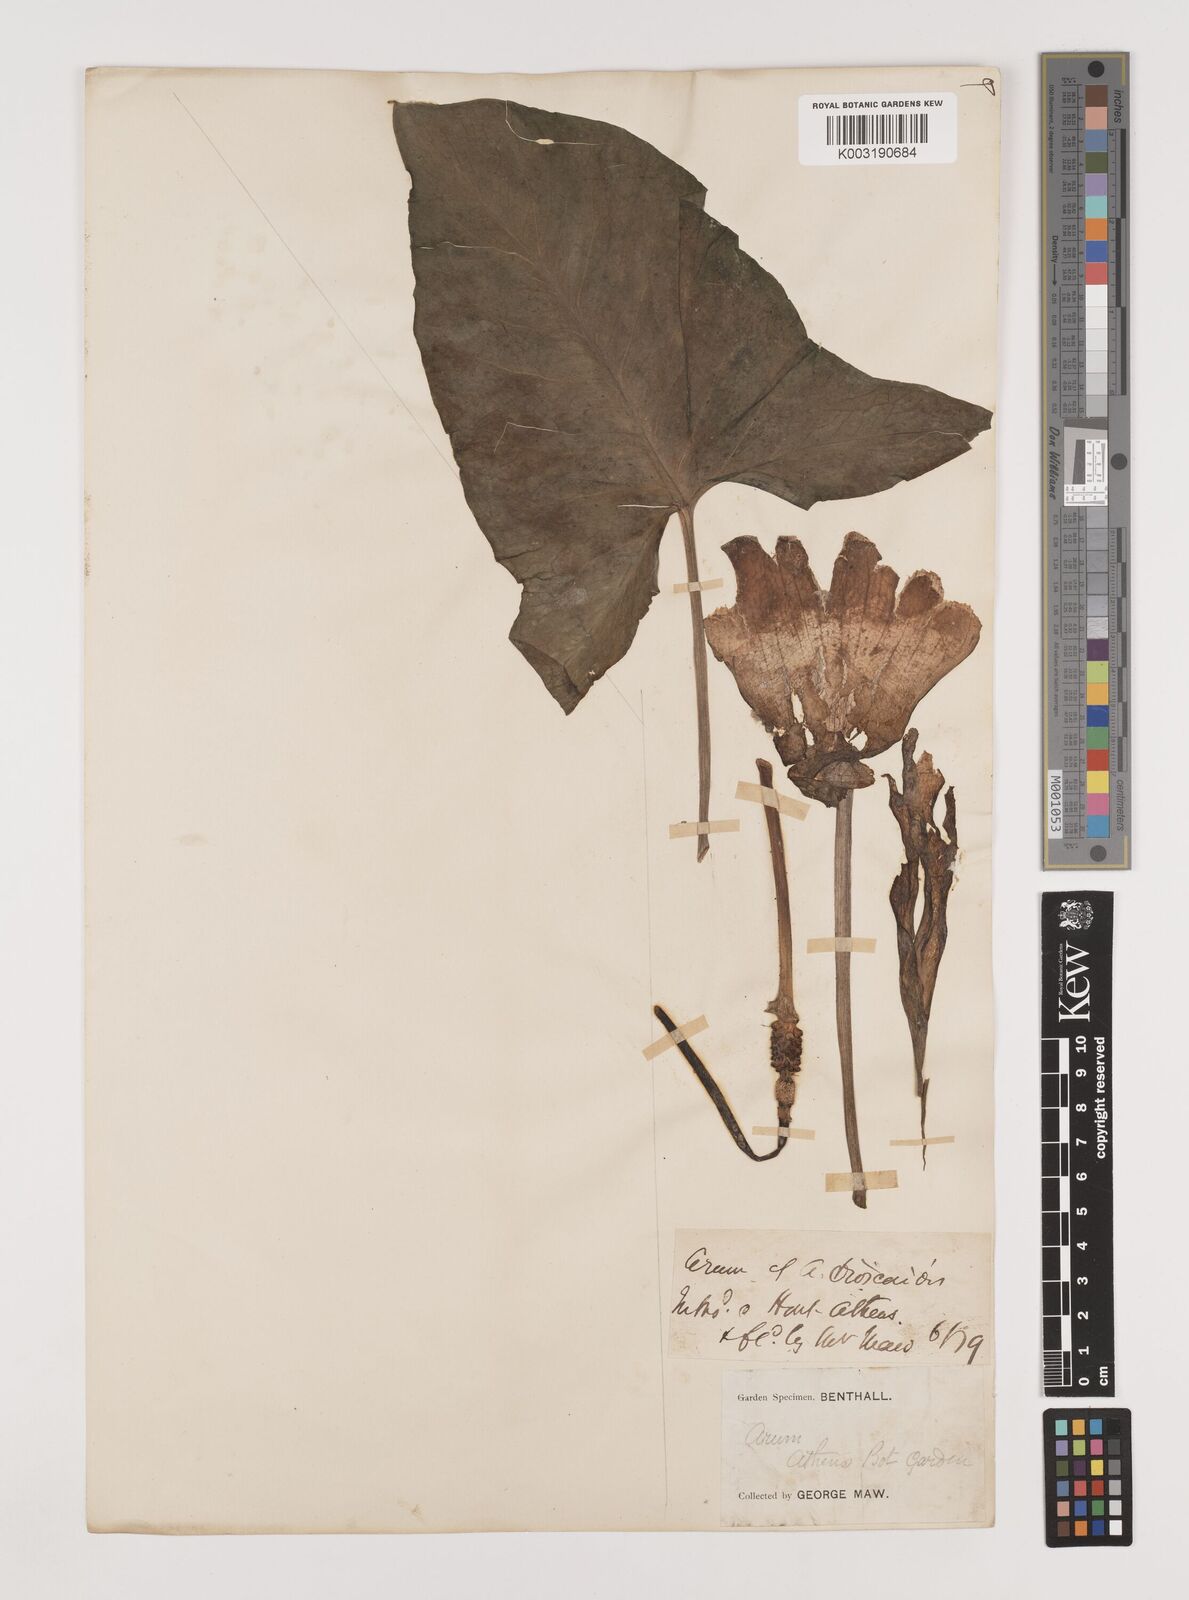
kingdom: Plantae
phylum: Tracheophyta
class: Liliopsida
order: Alismatales
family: Araceae
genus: Arum
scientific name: Arum dioscoridis
